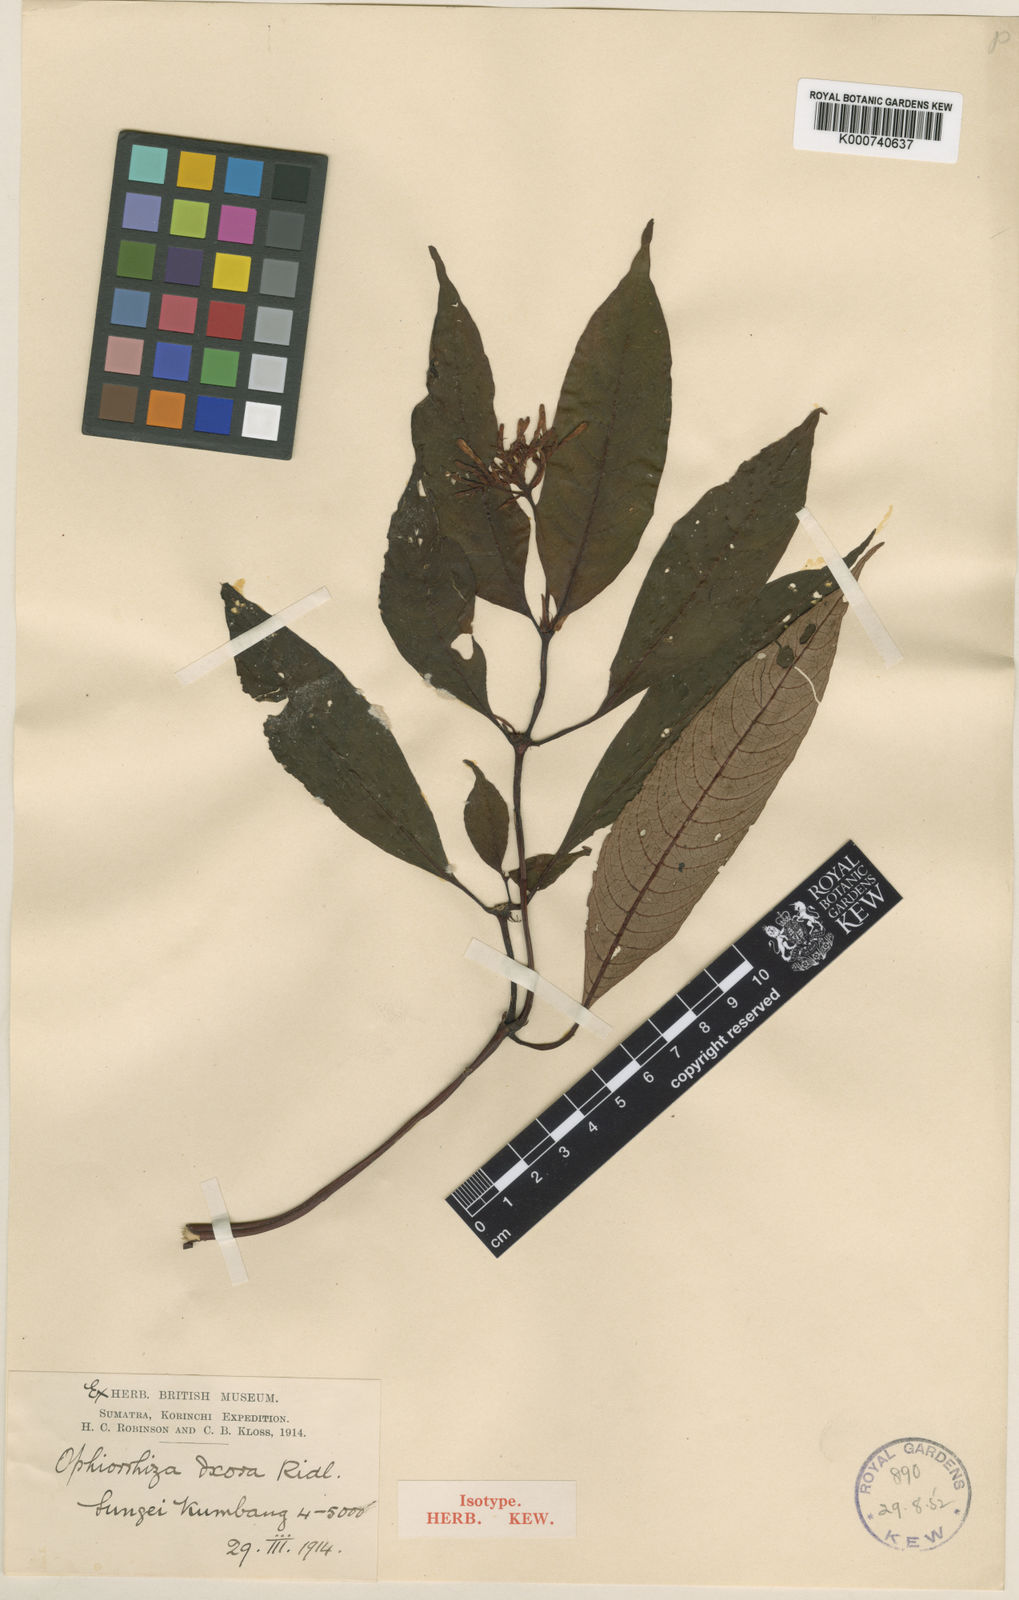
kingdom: Plantae
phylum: Tracheophyta
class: Magnoliopsida
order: Gentianales
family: Rubiaceae
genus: Ophiorrhiza
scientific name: Ophiorrhiza ixora
